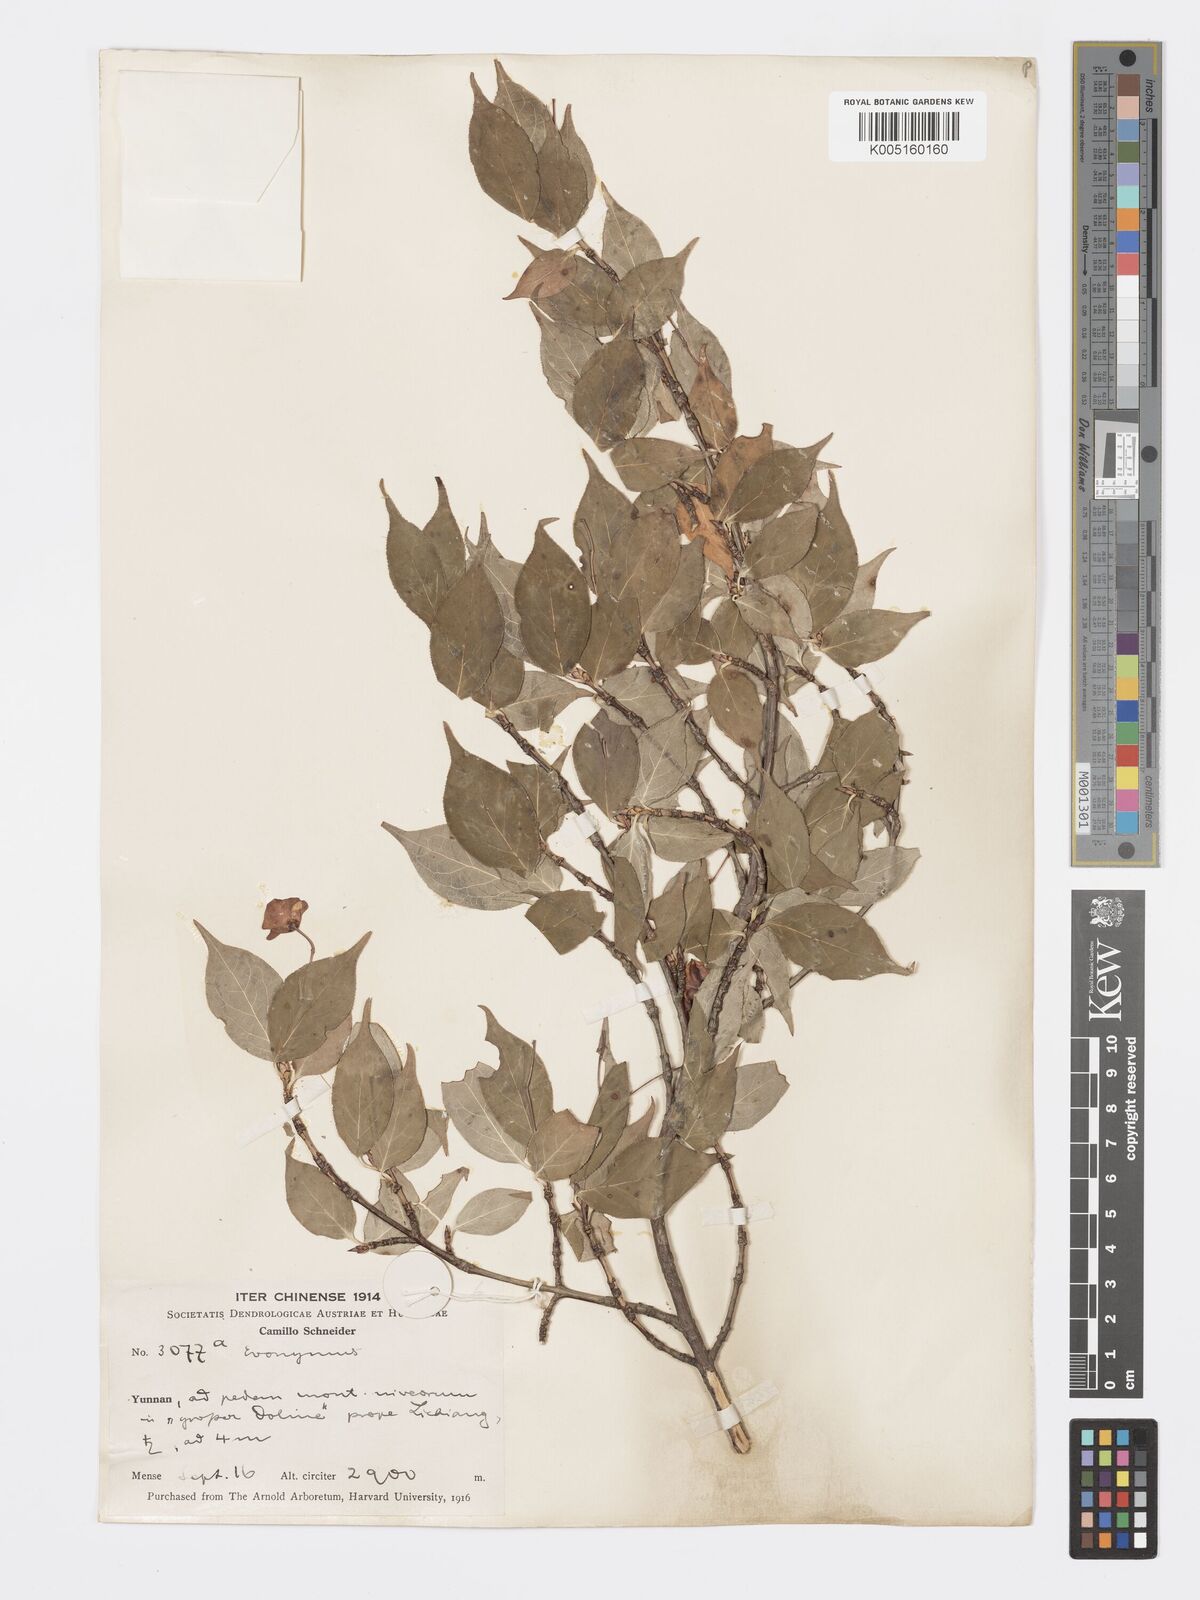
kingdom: Plantae
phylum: Tracheophyta
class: Magnoliopsida
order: Celastrales
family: Celastraceae
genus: Euonymus
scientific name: Euonymus frigidus
